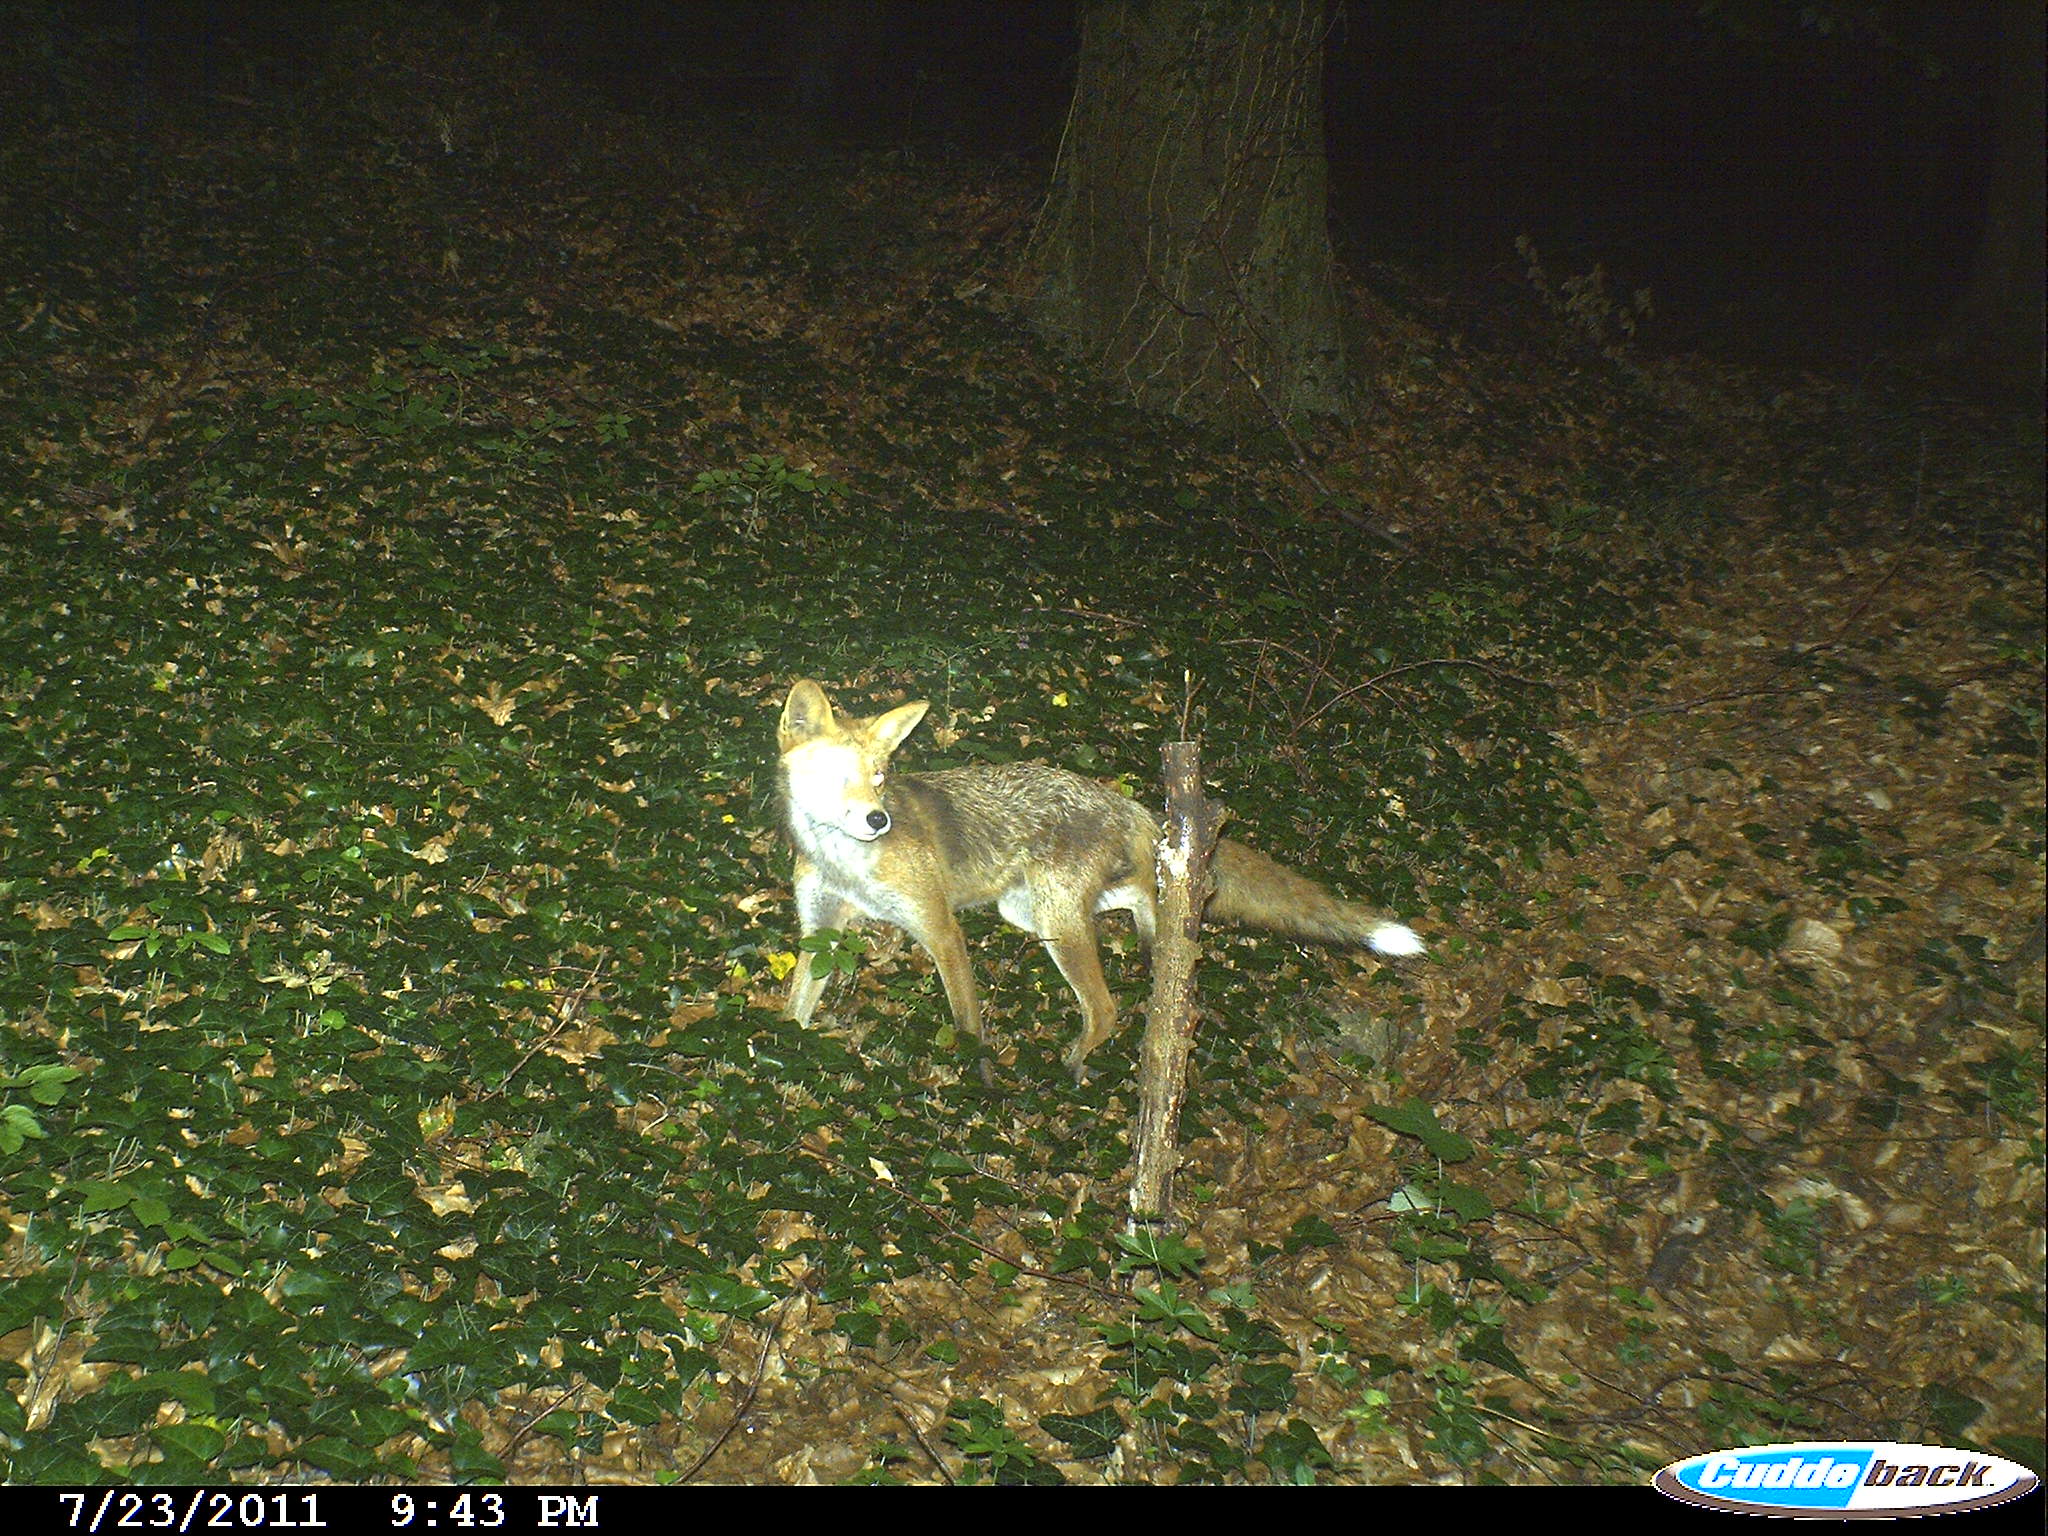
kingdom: Animalia
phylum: Chordata
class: Mammalia
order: Carnivora
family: Canidae
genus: Vulpes
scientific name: Vulpes vulpes
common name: Red fox
